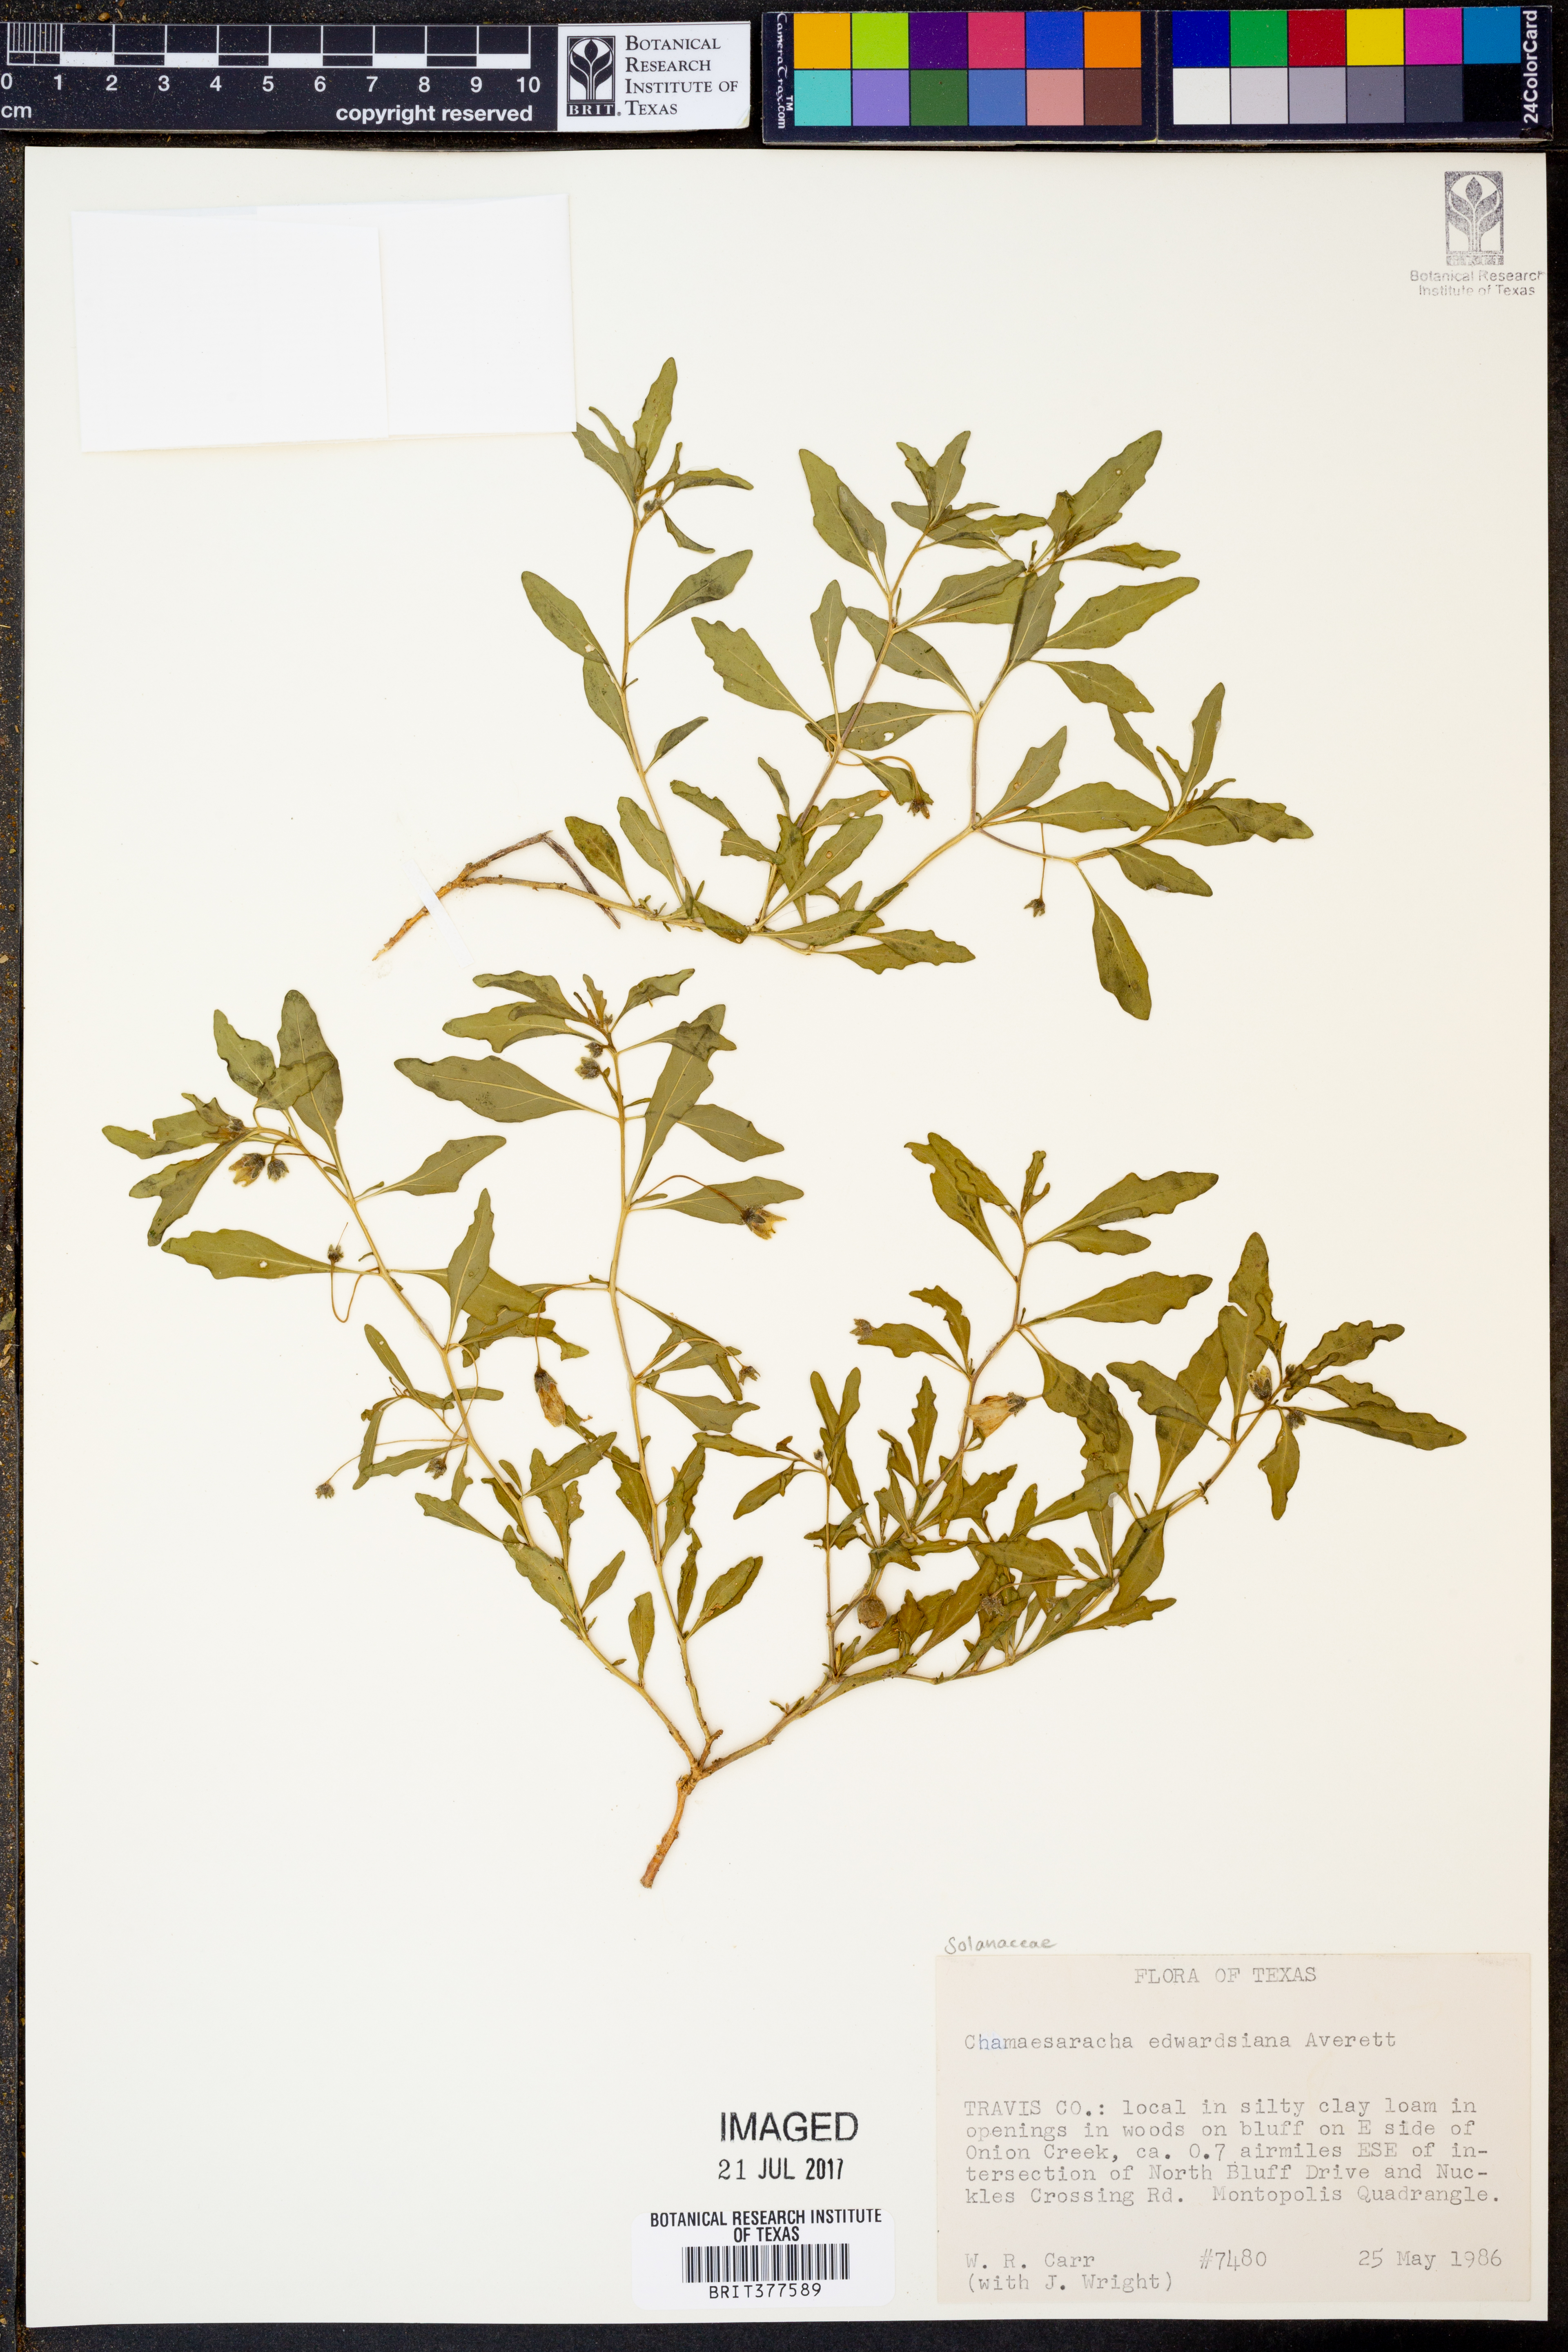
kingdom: Plantae
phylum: Tracheophyta
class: Magnoliopsida
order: Solanales
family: Solanaceae
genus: Chamaesaracha
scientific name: Chamaesaracha edwardsiana
